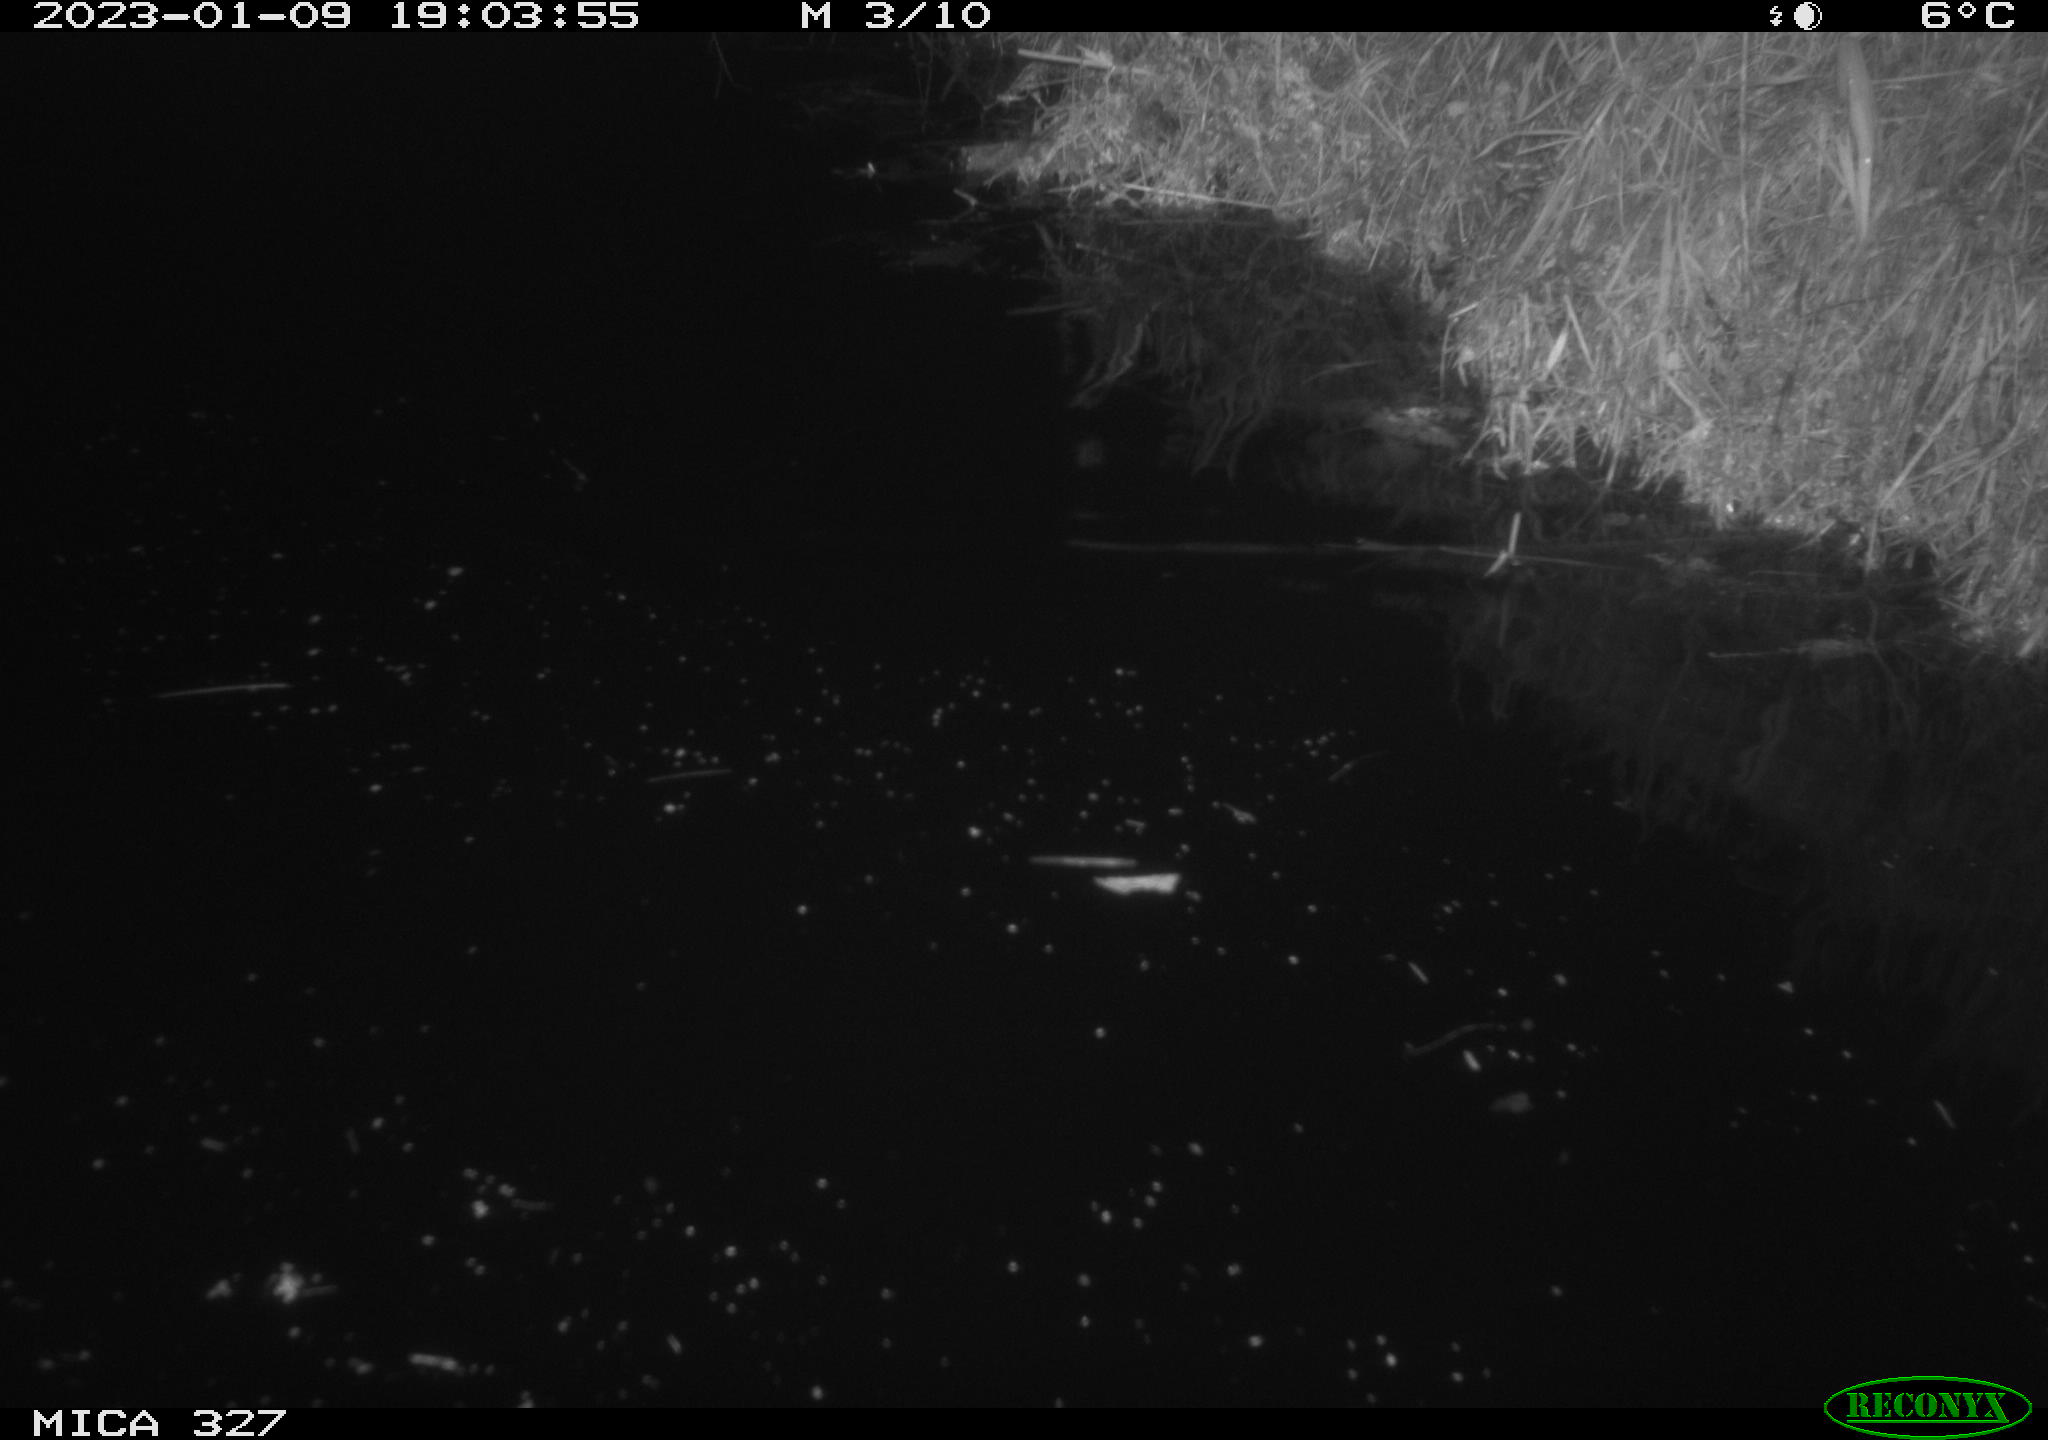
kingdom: Animalia
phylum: Chordata
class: Mammalia
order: Rodentia
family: Cricetidae
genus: Ondatra
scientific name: Ondatra zibethicus
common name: Muskrat
